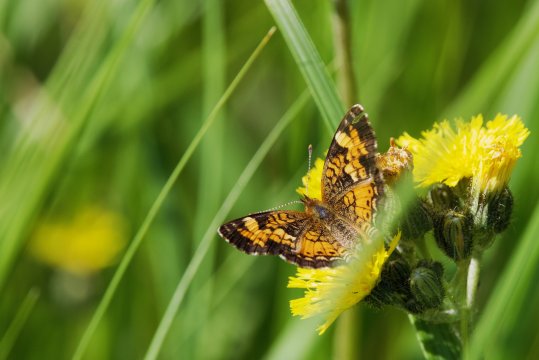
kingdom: Animalia
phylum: Arthropoda
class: Insecta
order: Lepidoptera
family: Nymphalidae
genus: Phyciodes
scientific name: Phyciodes tharos
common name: Northern Crescent
